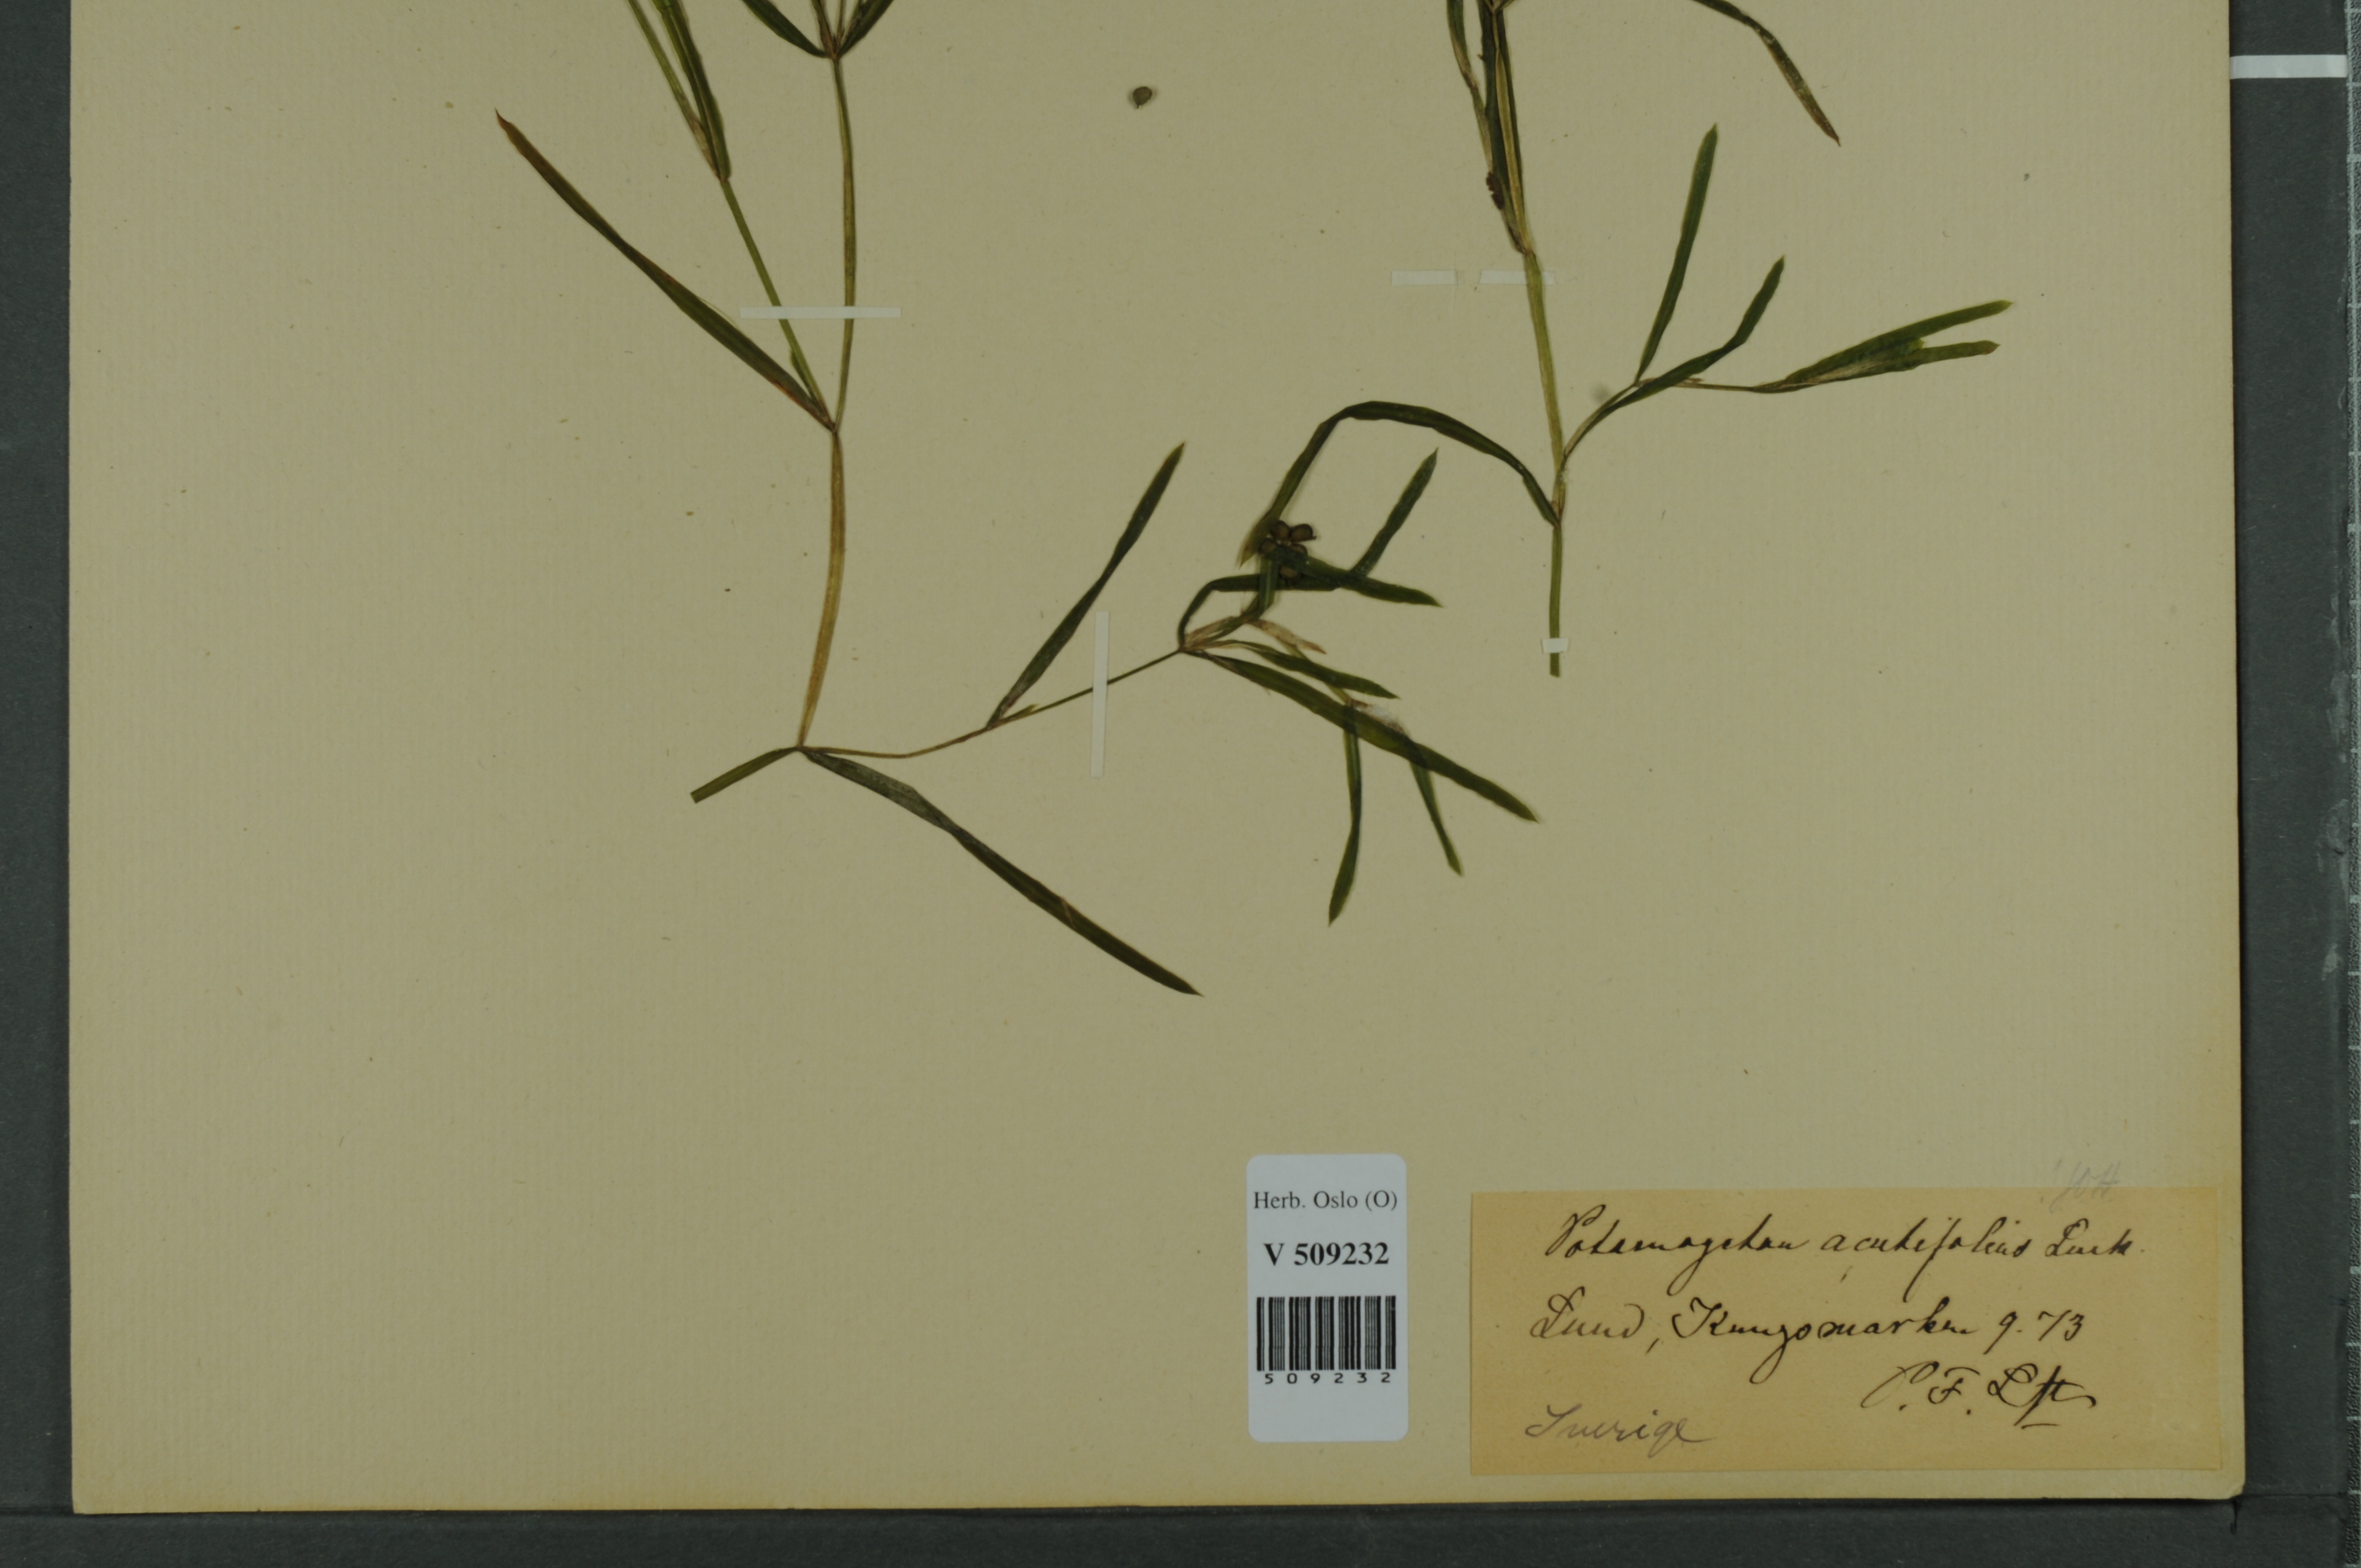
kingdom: Plantae
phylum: Tracheophyta
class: Liliopsida
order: Alismatales
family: Potamogetonaceae
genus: Potamogeton
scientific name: Potamogeton acutifolius
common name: Sharp-leaved pondweed
